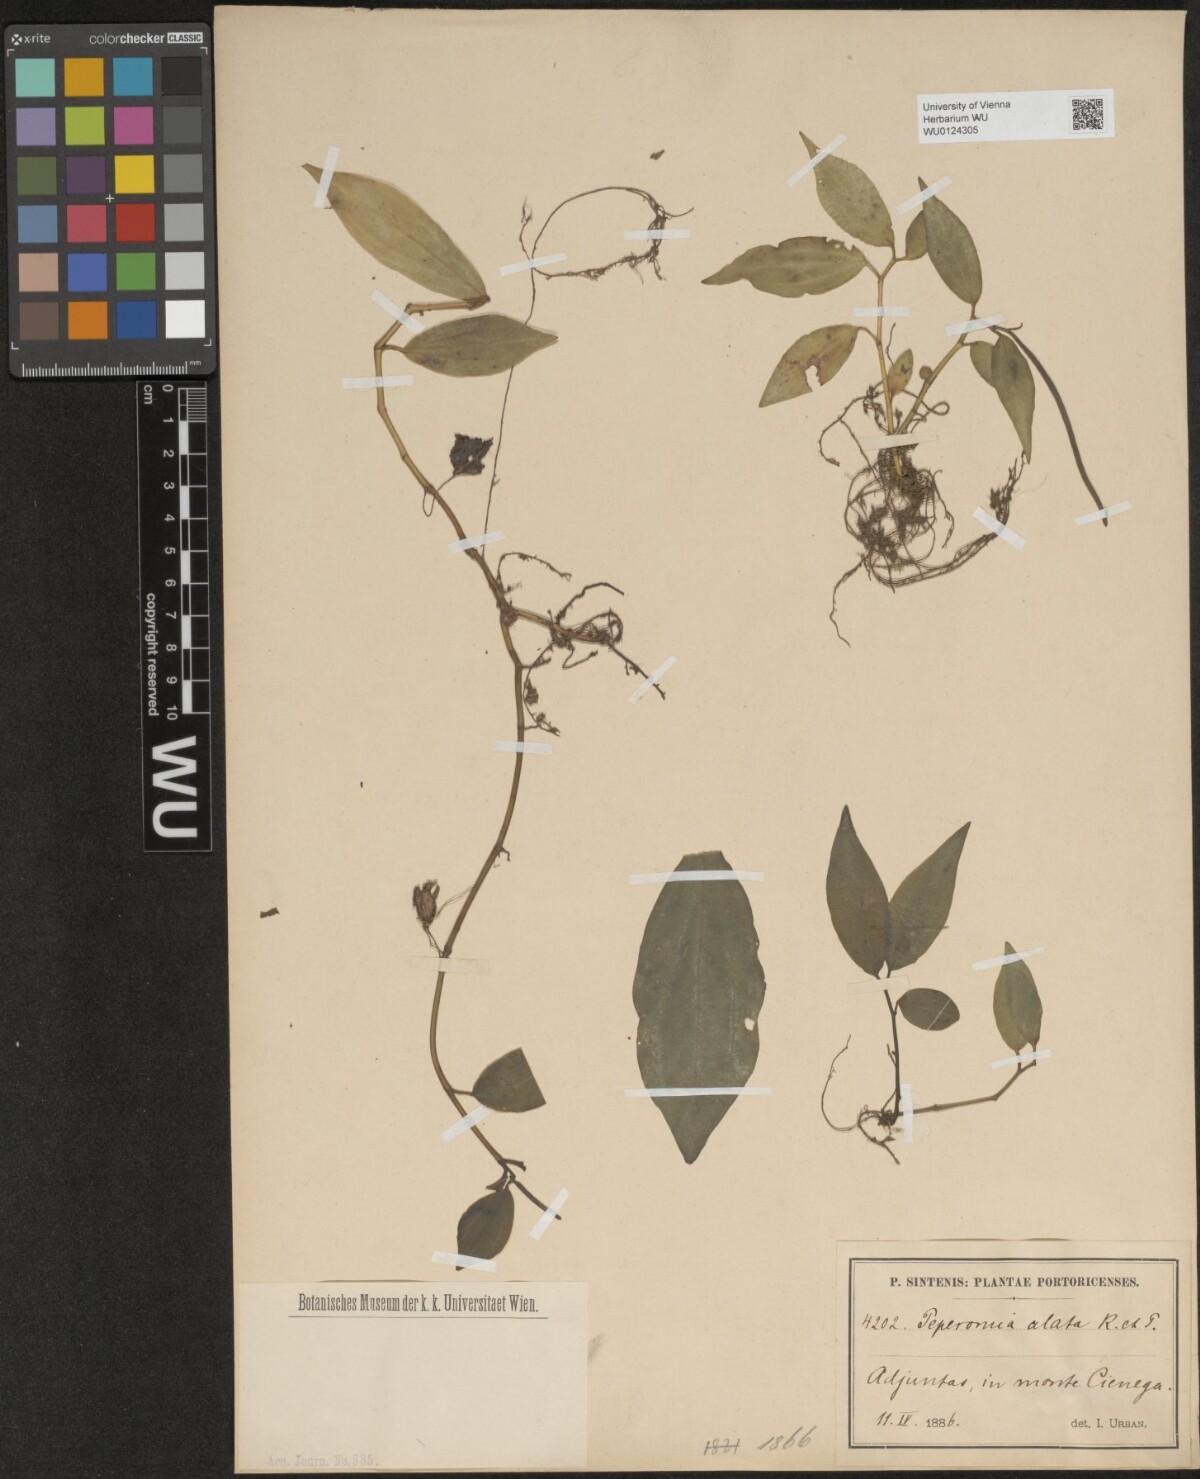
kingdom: Plantae
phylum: Tracheophyta
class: Magnoliopsida
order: Piperales
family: Piperaceae
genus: Peperomia
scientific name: Peperomia alata
